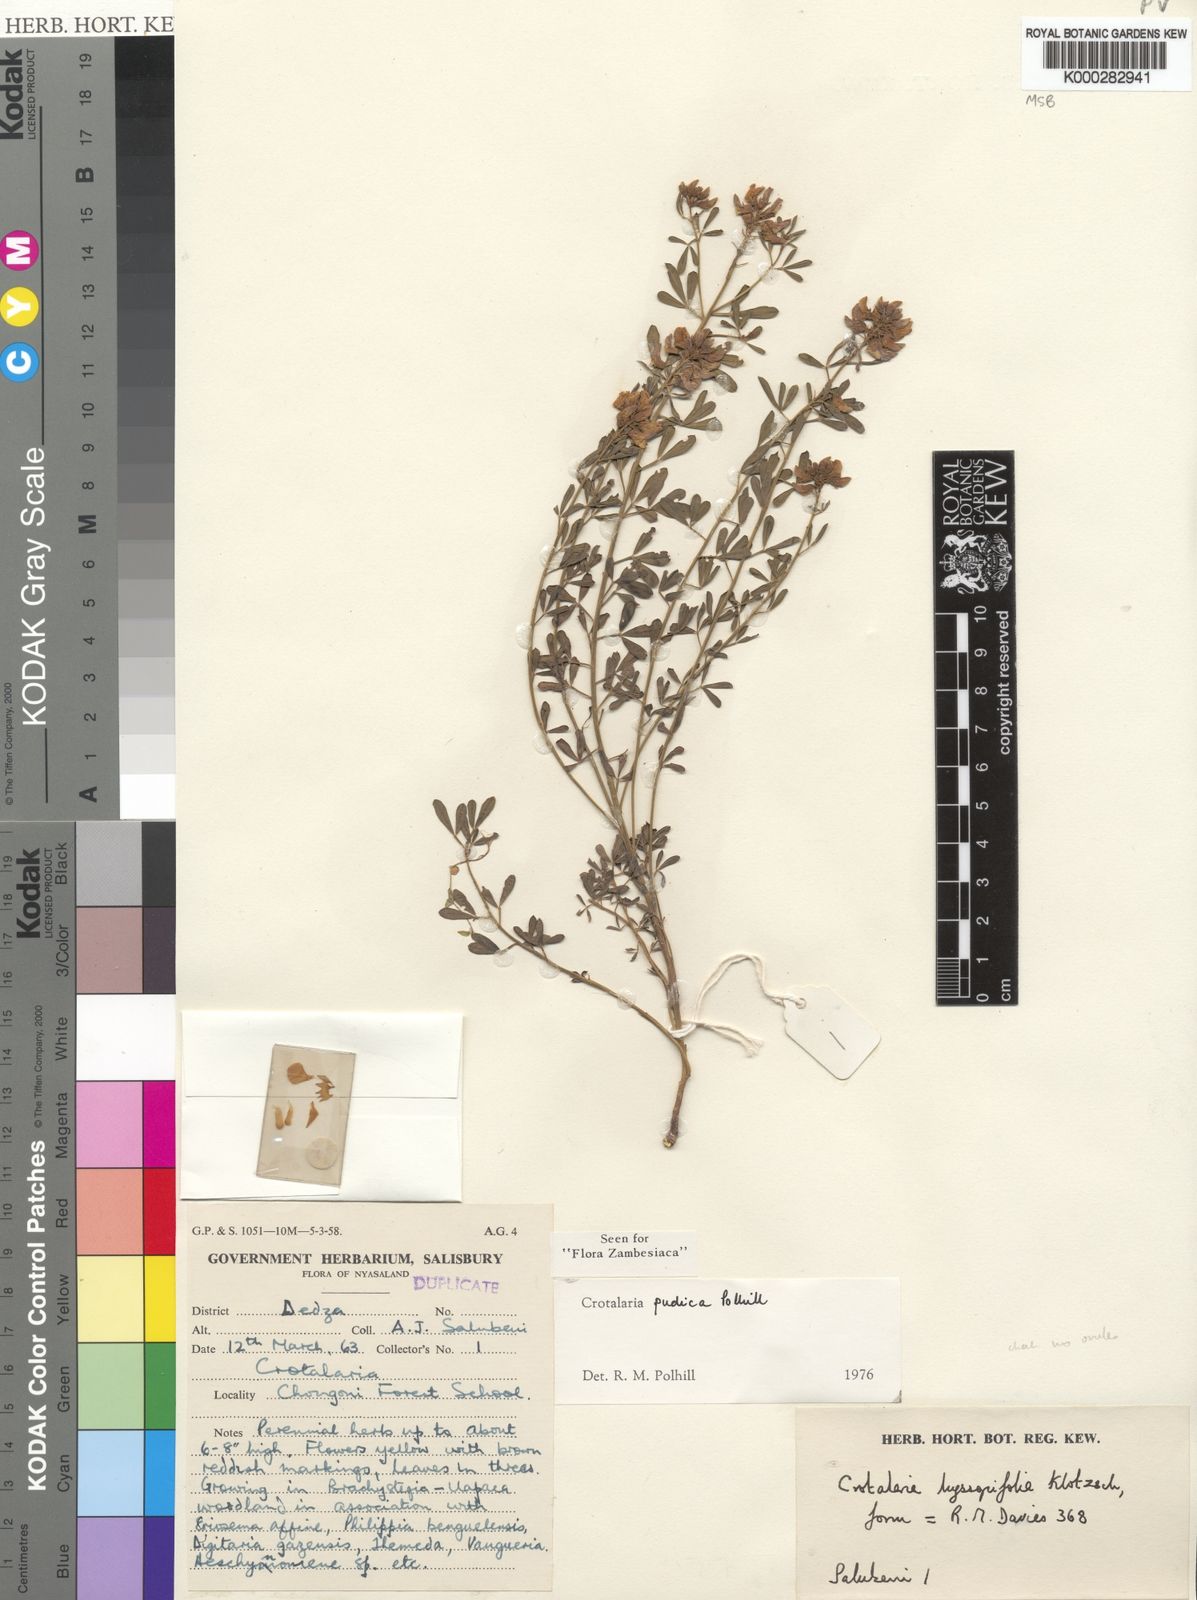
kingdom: Plantae
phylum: Tracheophyta
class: Magnoliopsida
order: Fabales
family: Fabaceae
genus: Crotalaria
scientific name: Crotalaria pudica
